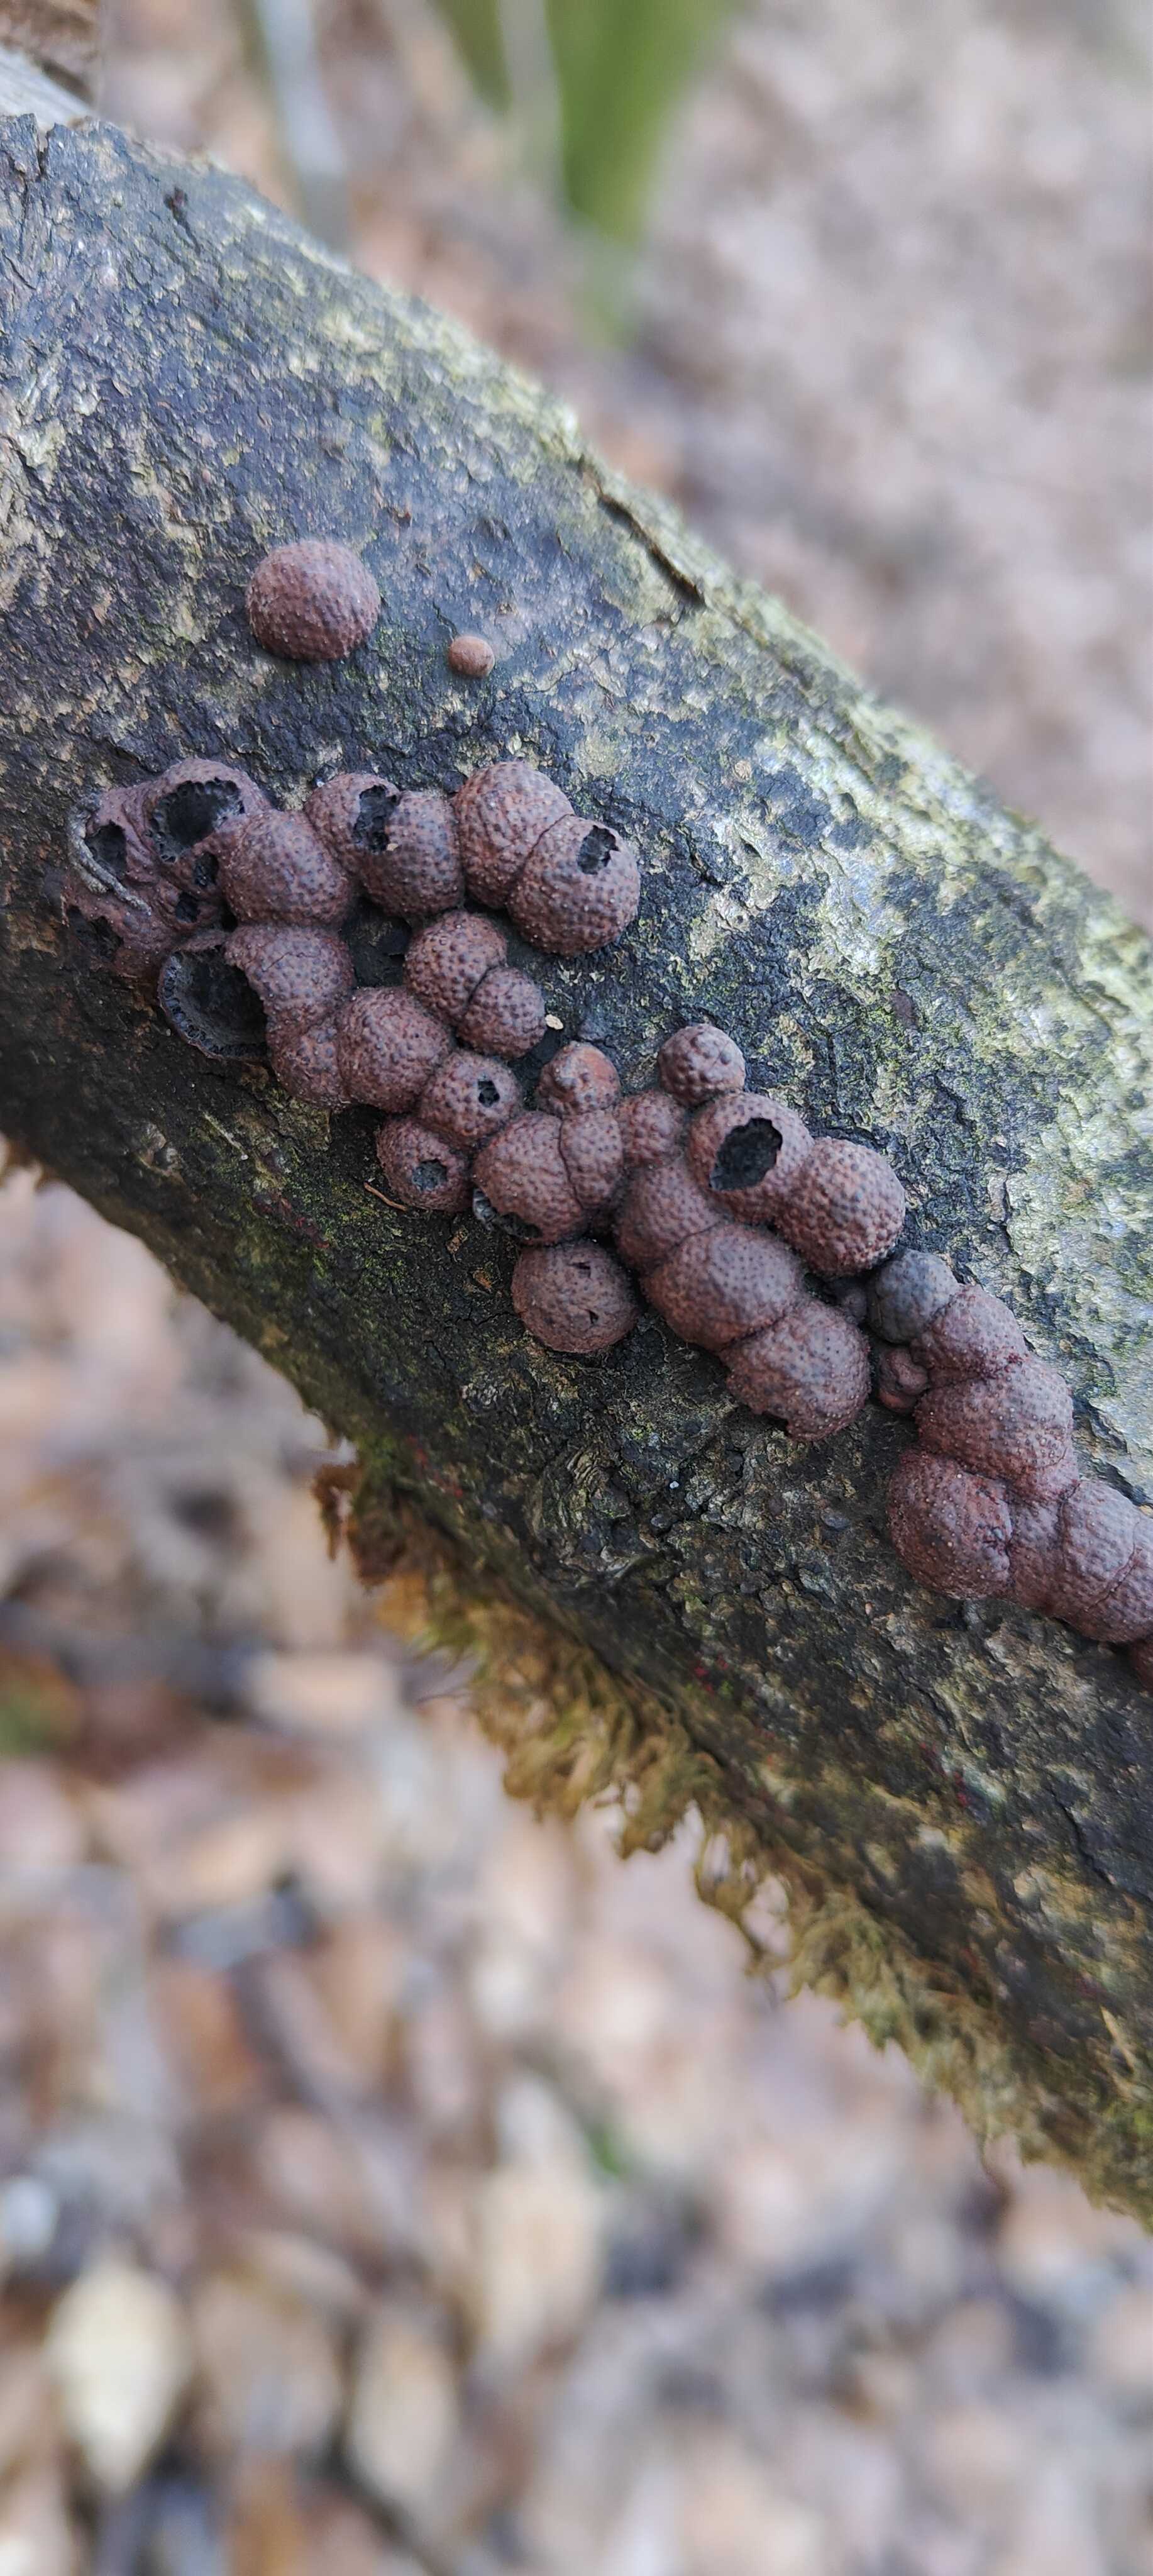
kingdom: Fungi
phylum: Ascomycota
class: Sordariomycetes
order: Xylariales
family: Hypoxylaceae
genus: Hypoxylon
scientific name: Hypoxylon fragiforme
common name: kuljordbær
